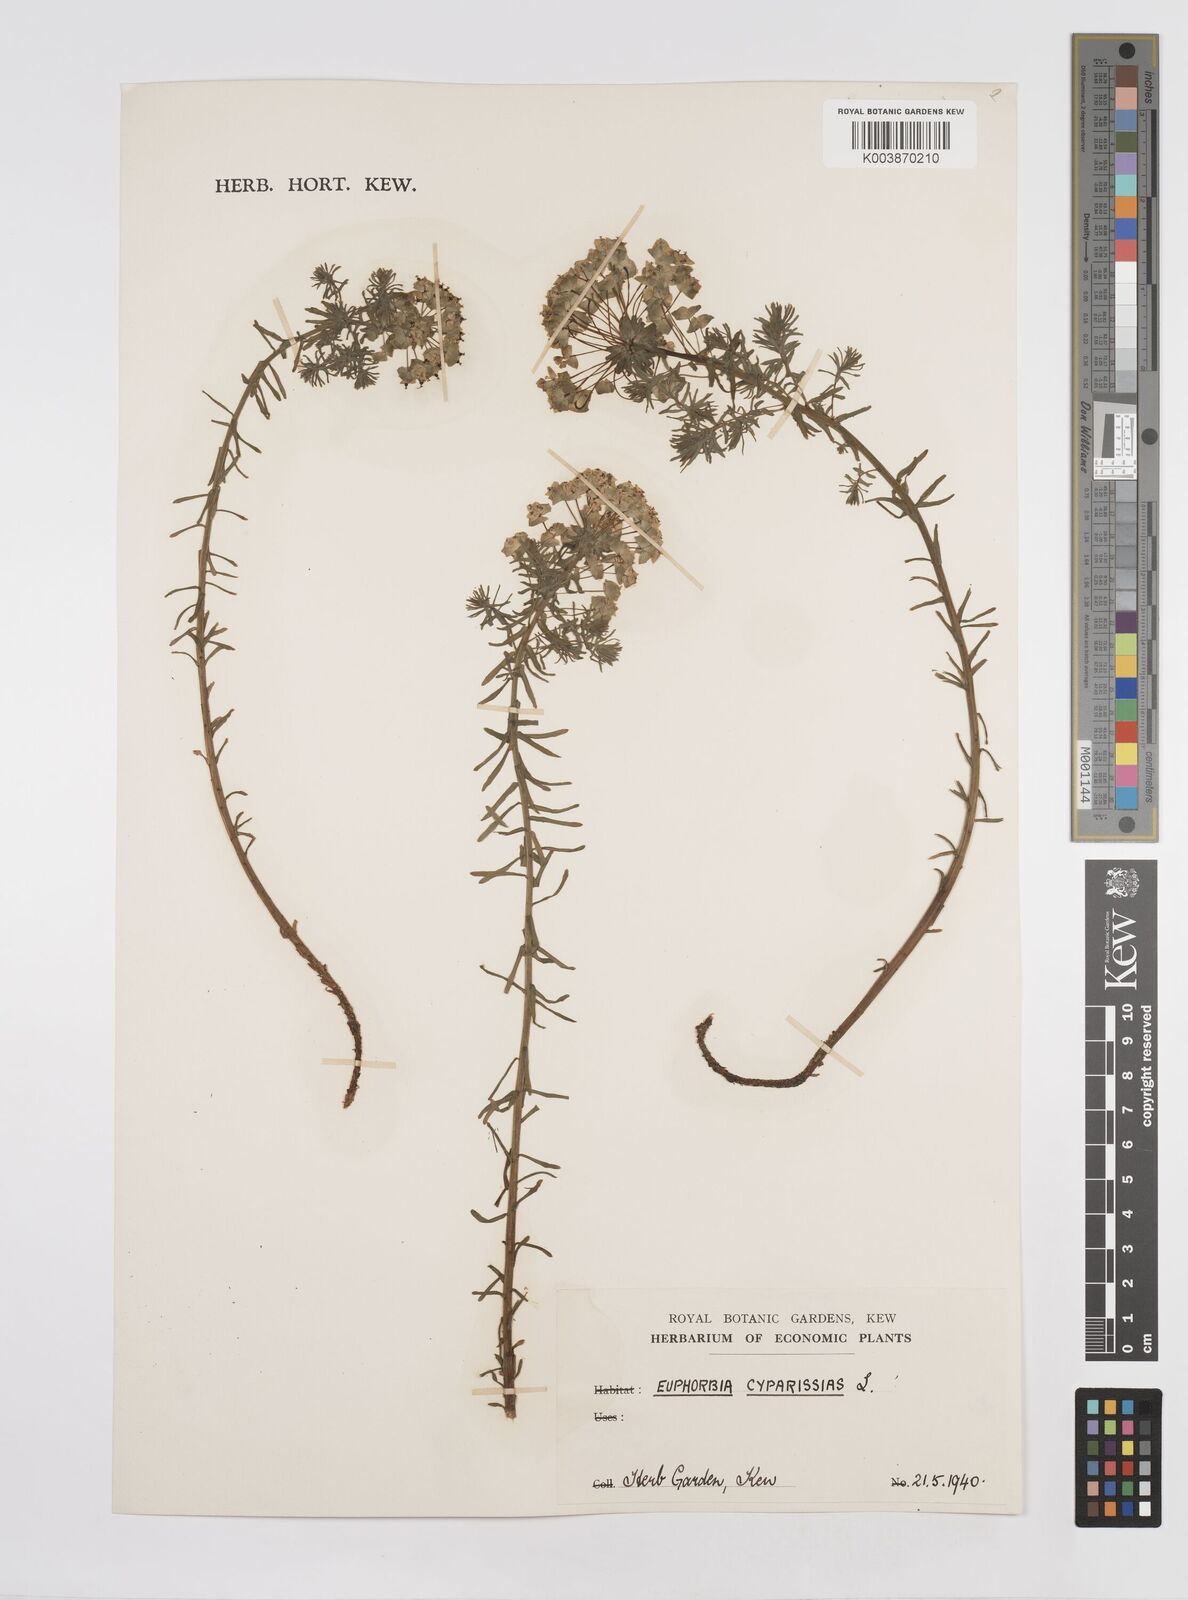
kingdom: Plantae
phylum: Tracheophyta
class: Magnoliopsida
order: Malpighiales
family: Euphorbiaceae
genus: Euphorbia
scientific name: Euphorbia cyparissias
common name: Cypress spurge
